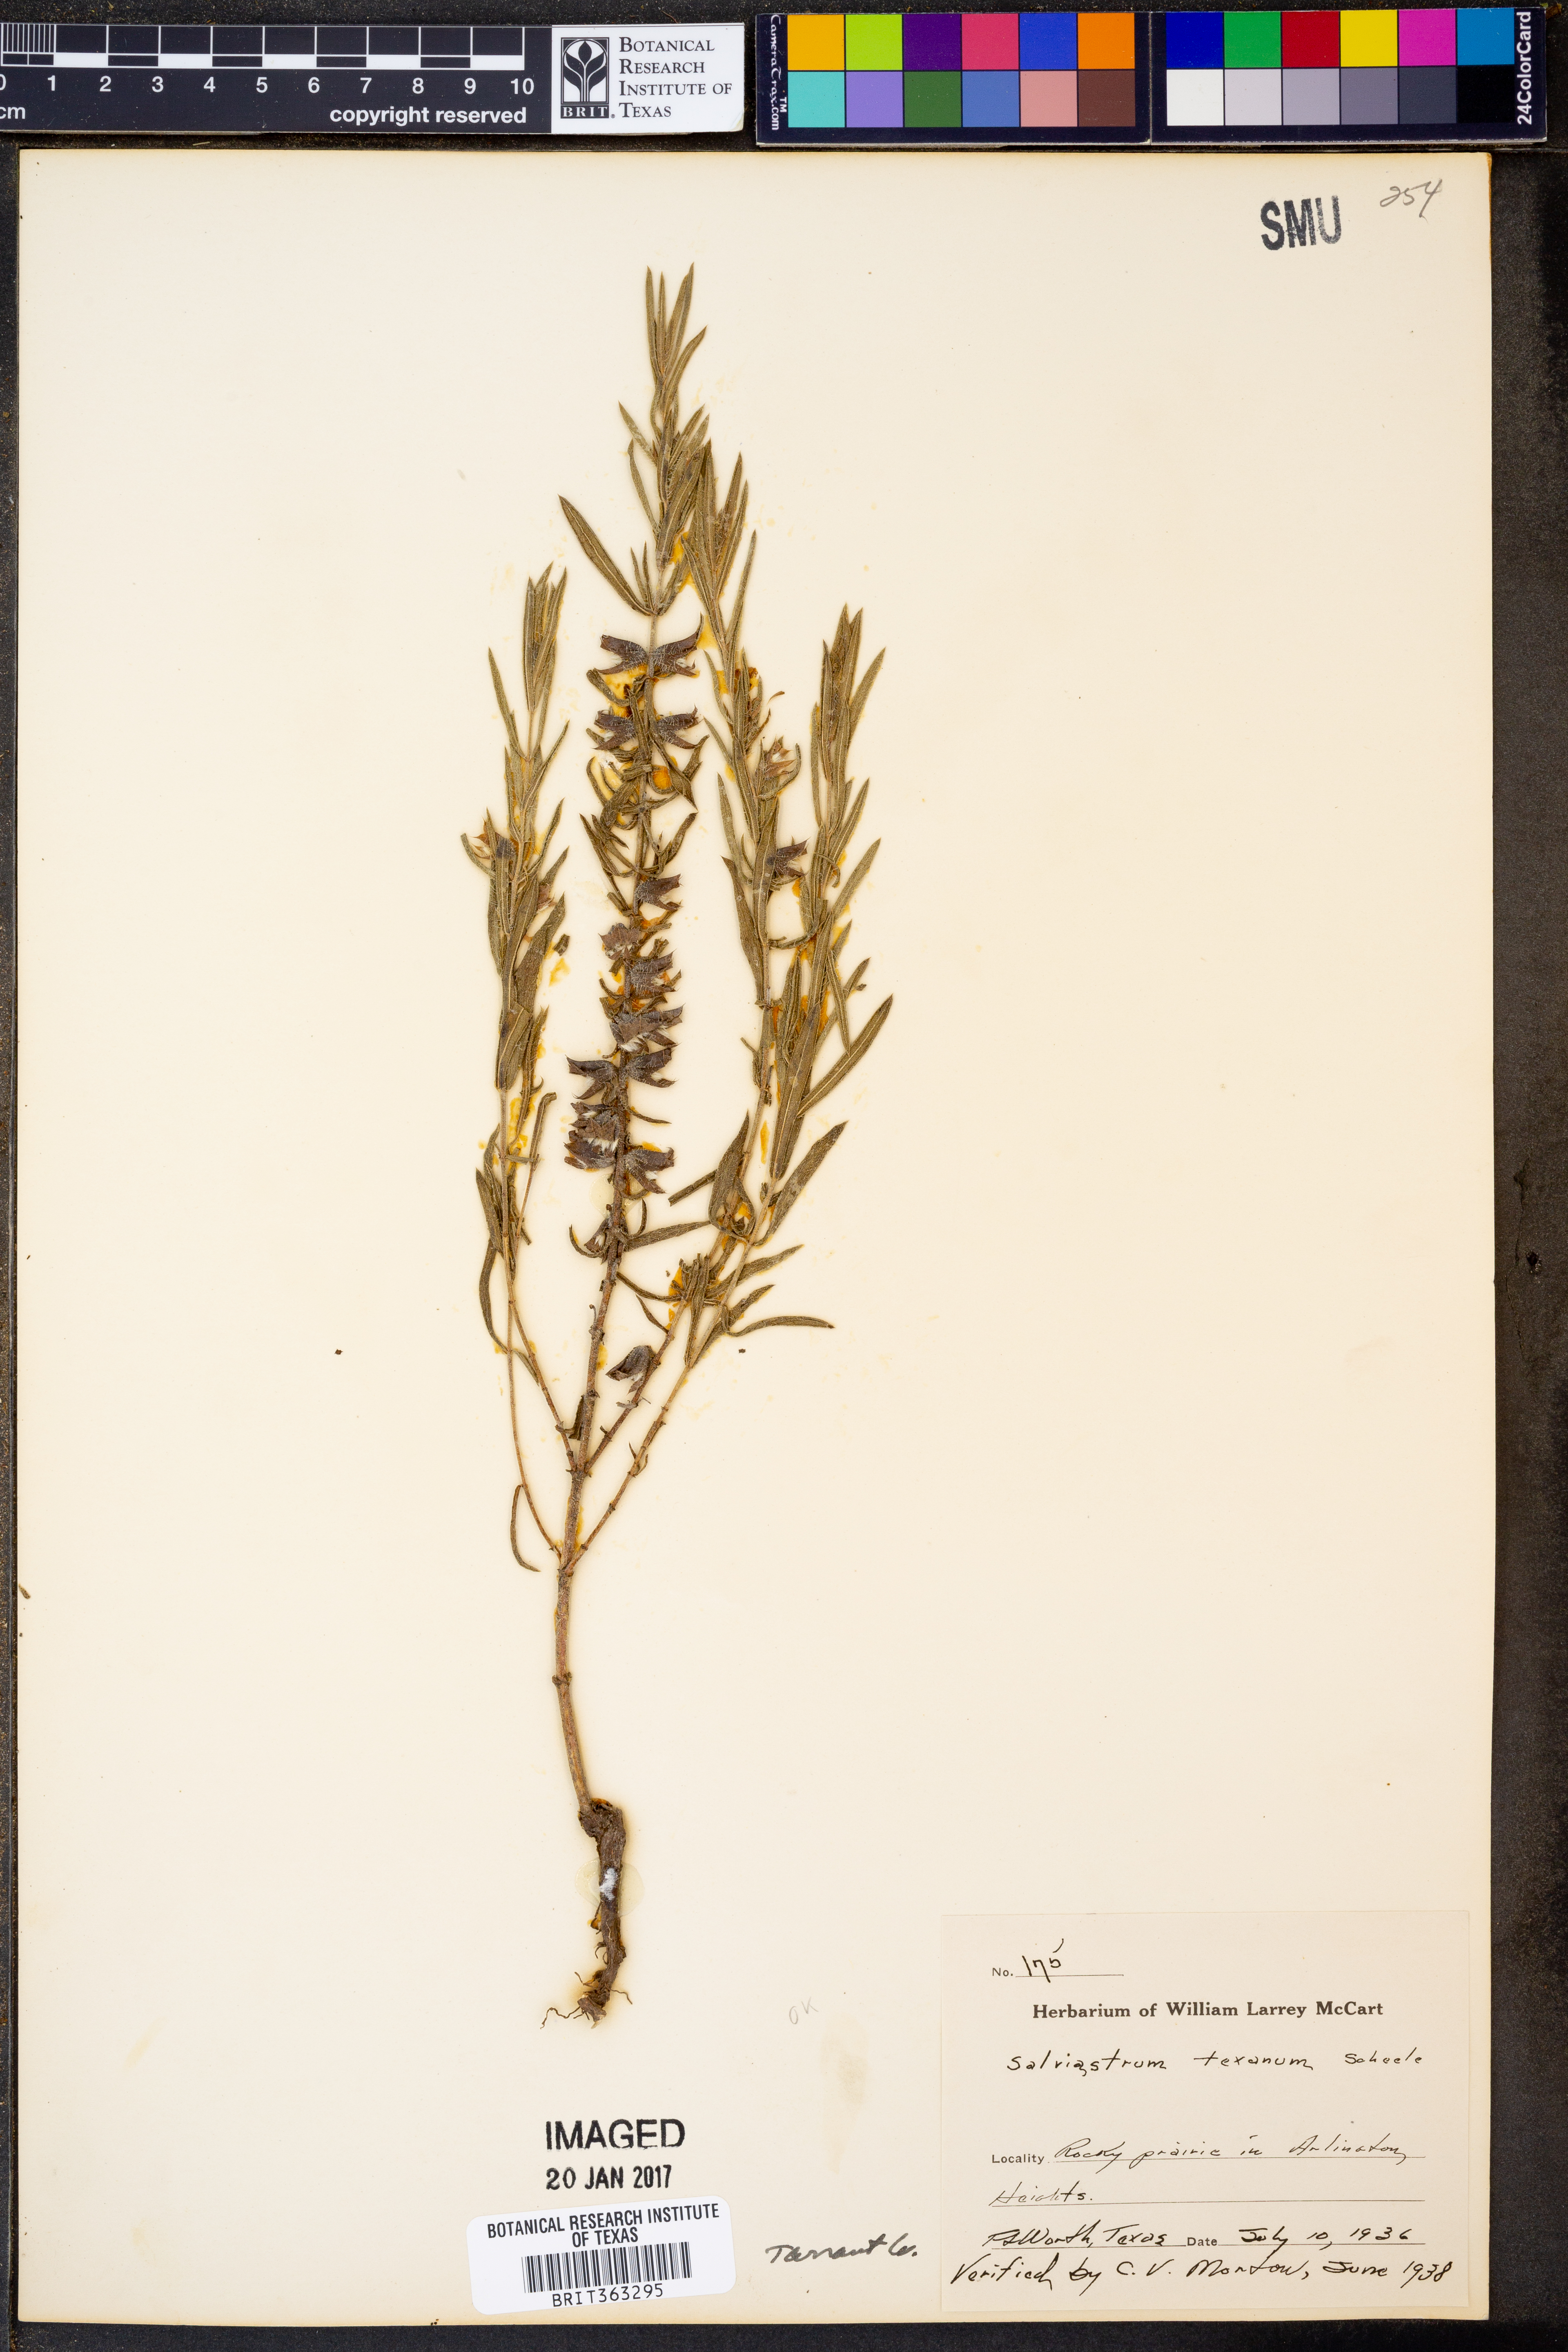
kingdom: Plantae
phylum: Tracheophyta
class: Magnoliopsida
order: Lamiales
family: Lamiaceae
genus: Salvia
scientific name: Salvia texana
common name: Texas sage
